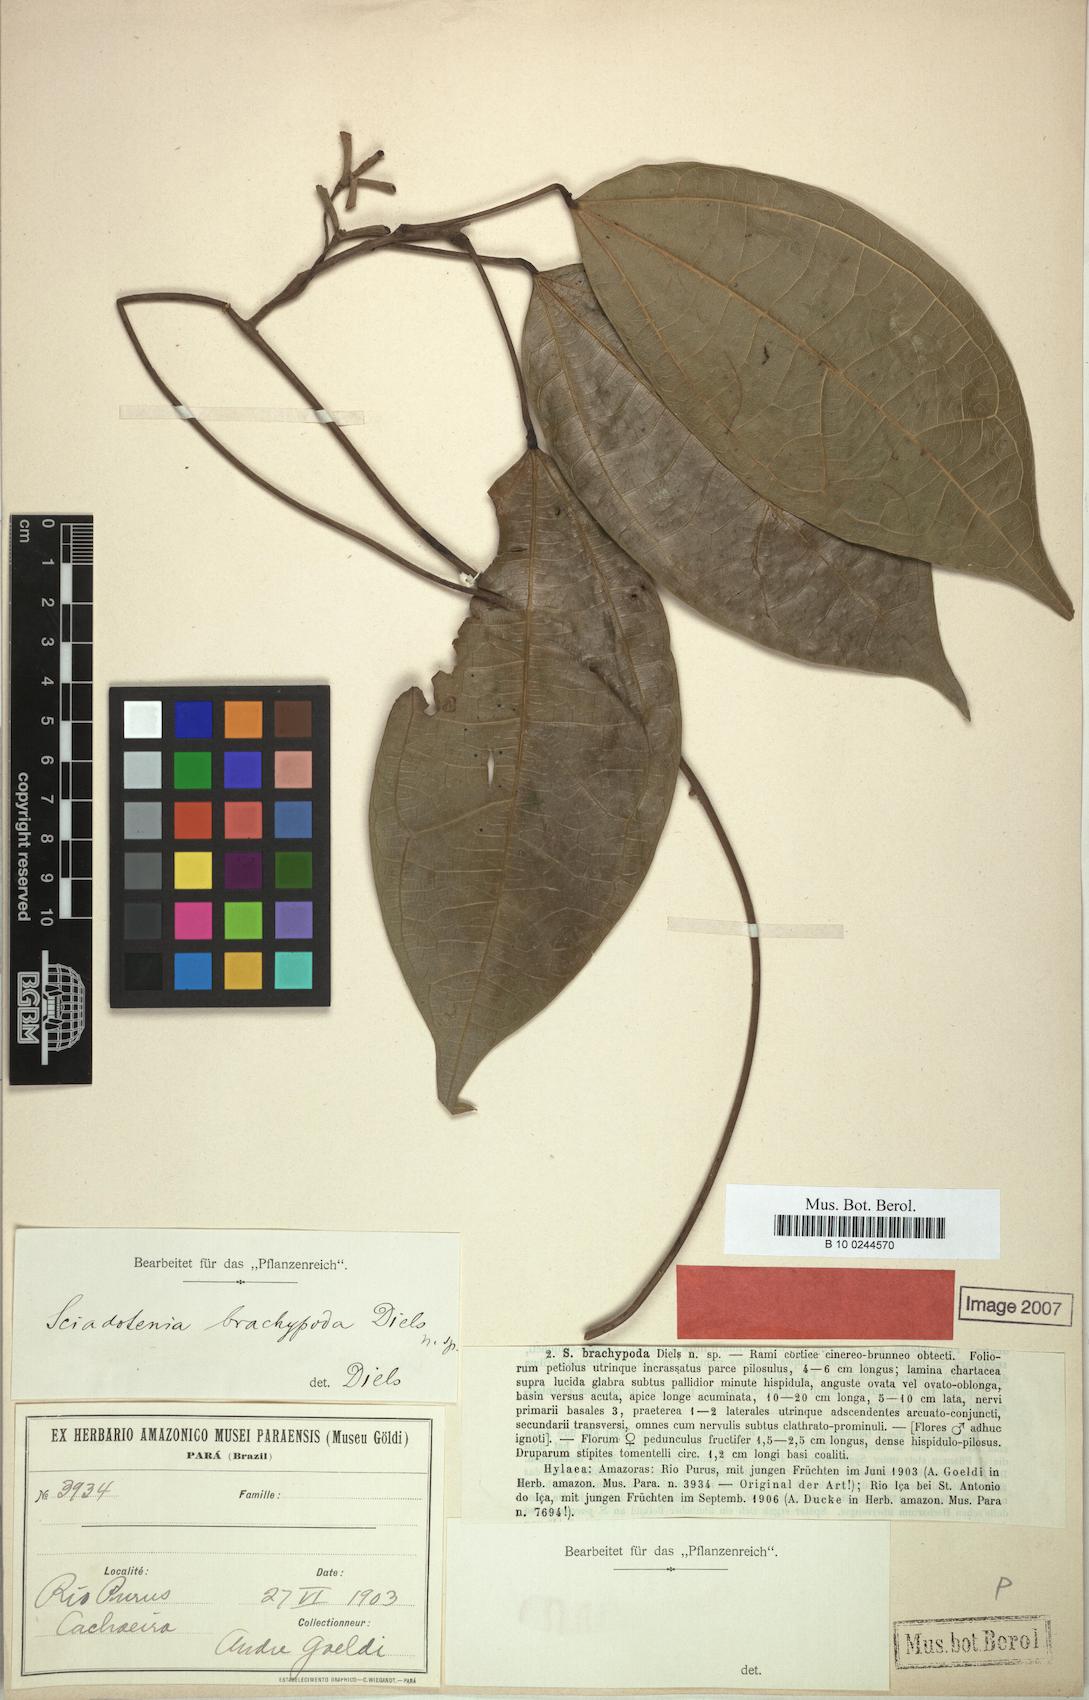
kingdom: Plantae
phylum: Tracheophyta
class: Magnoliopsida
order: Ranunculales
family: Menispermaceae
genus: Sciadotenia
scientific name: Sciadotenia brachypoda
